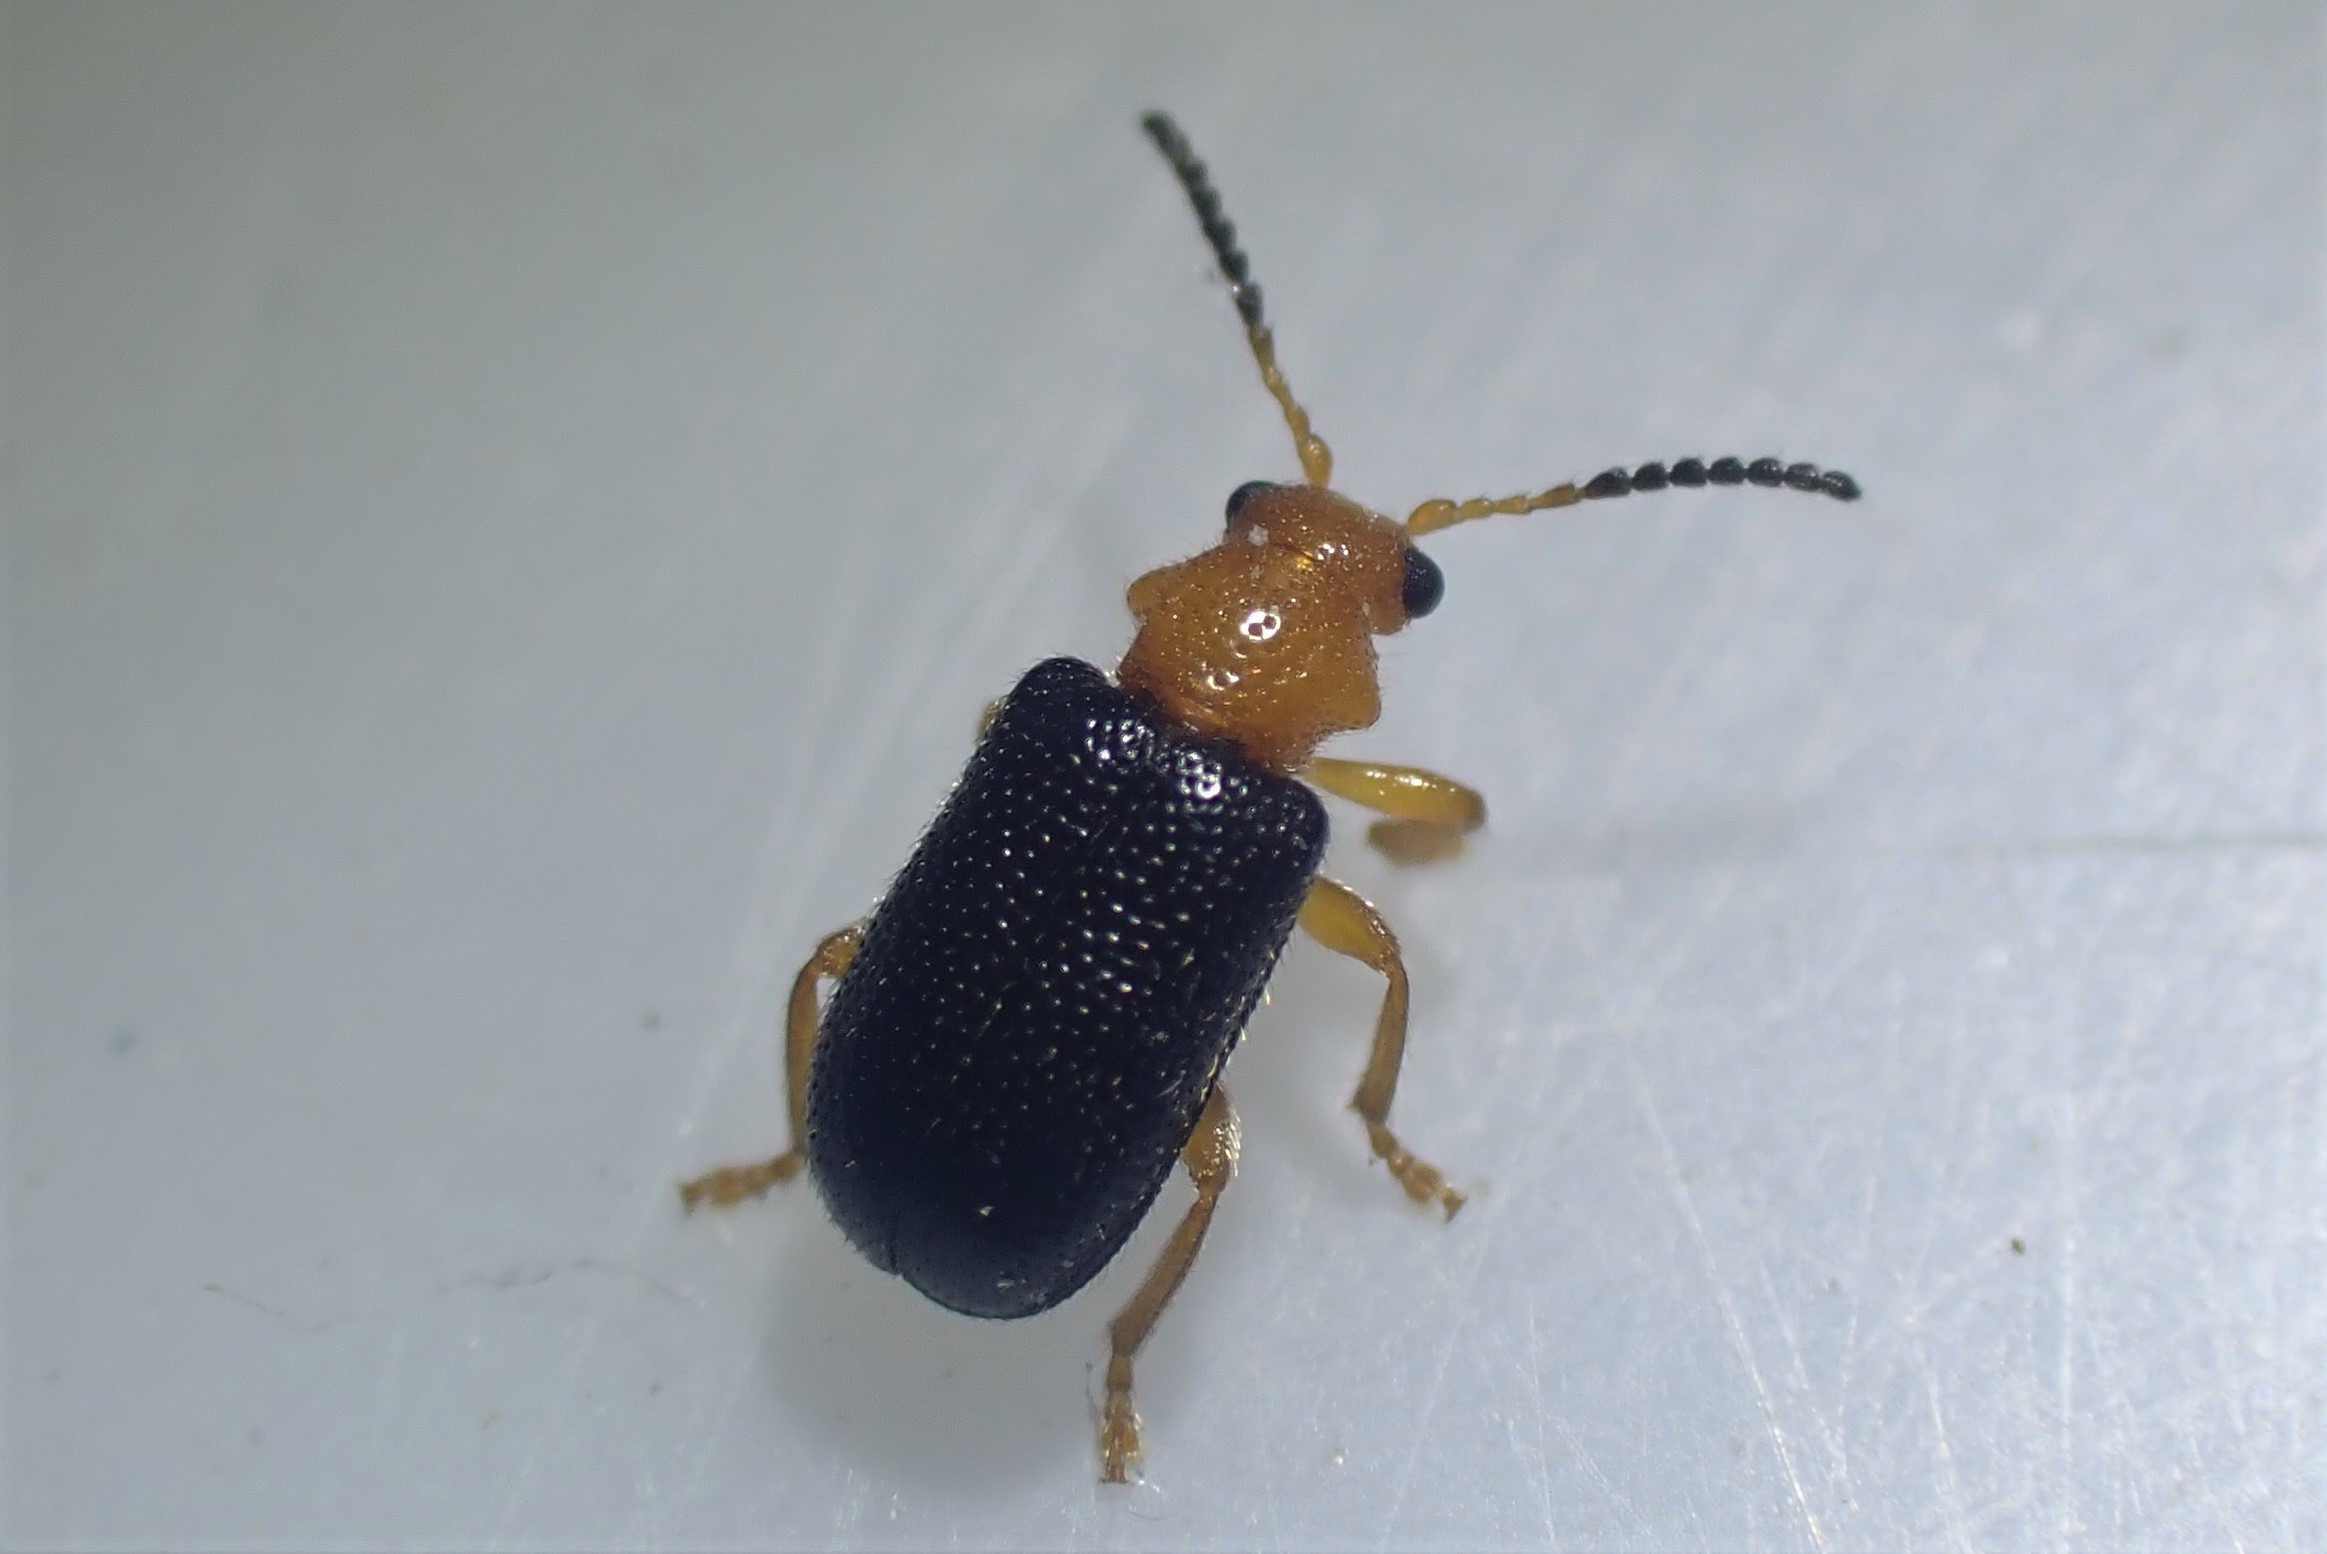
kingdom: Animalia
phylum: Arthropoda
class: Insecta
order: Coleoptera
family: Megalopodidae
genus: Zeugophora
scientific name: Zeugophora subspinosa
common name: Pukkelbladbille
